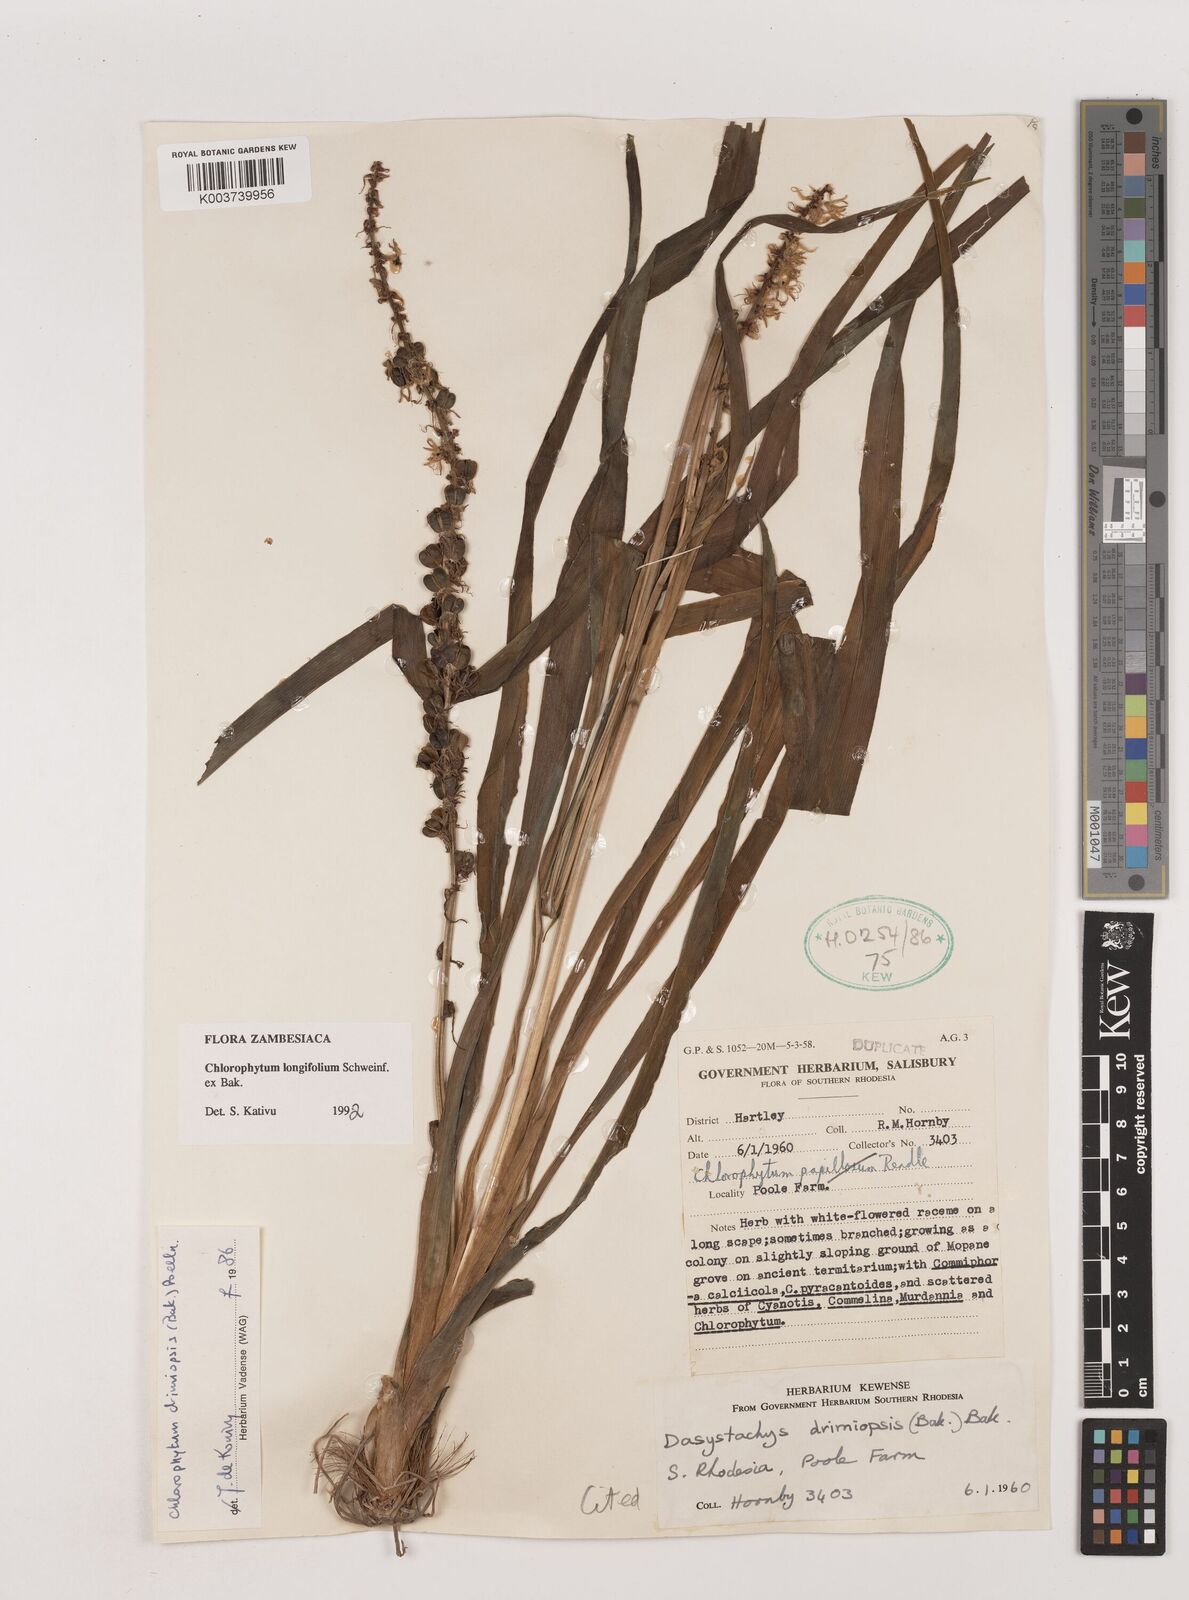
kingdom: Plantae
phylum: Tracheophyta
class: Liliopsida
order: Asparagales
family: Asparagaceae
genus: Chlorophytum
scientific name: Chlorophytum longifolium
